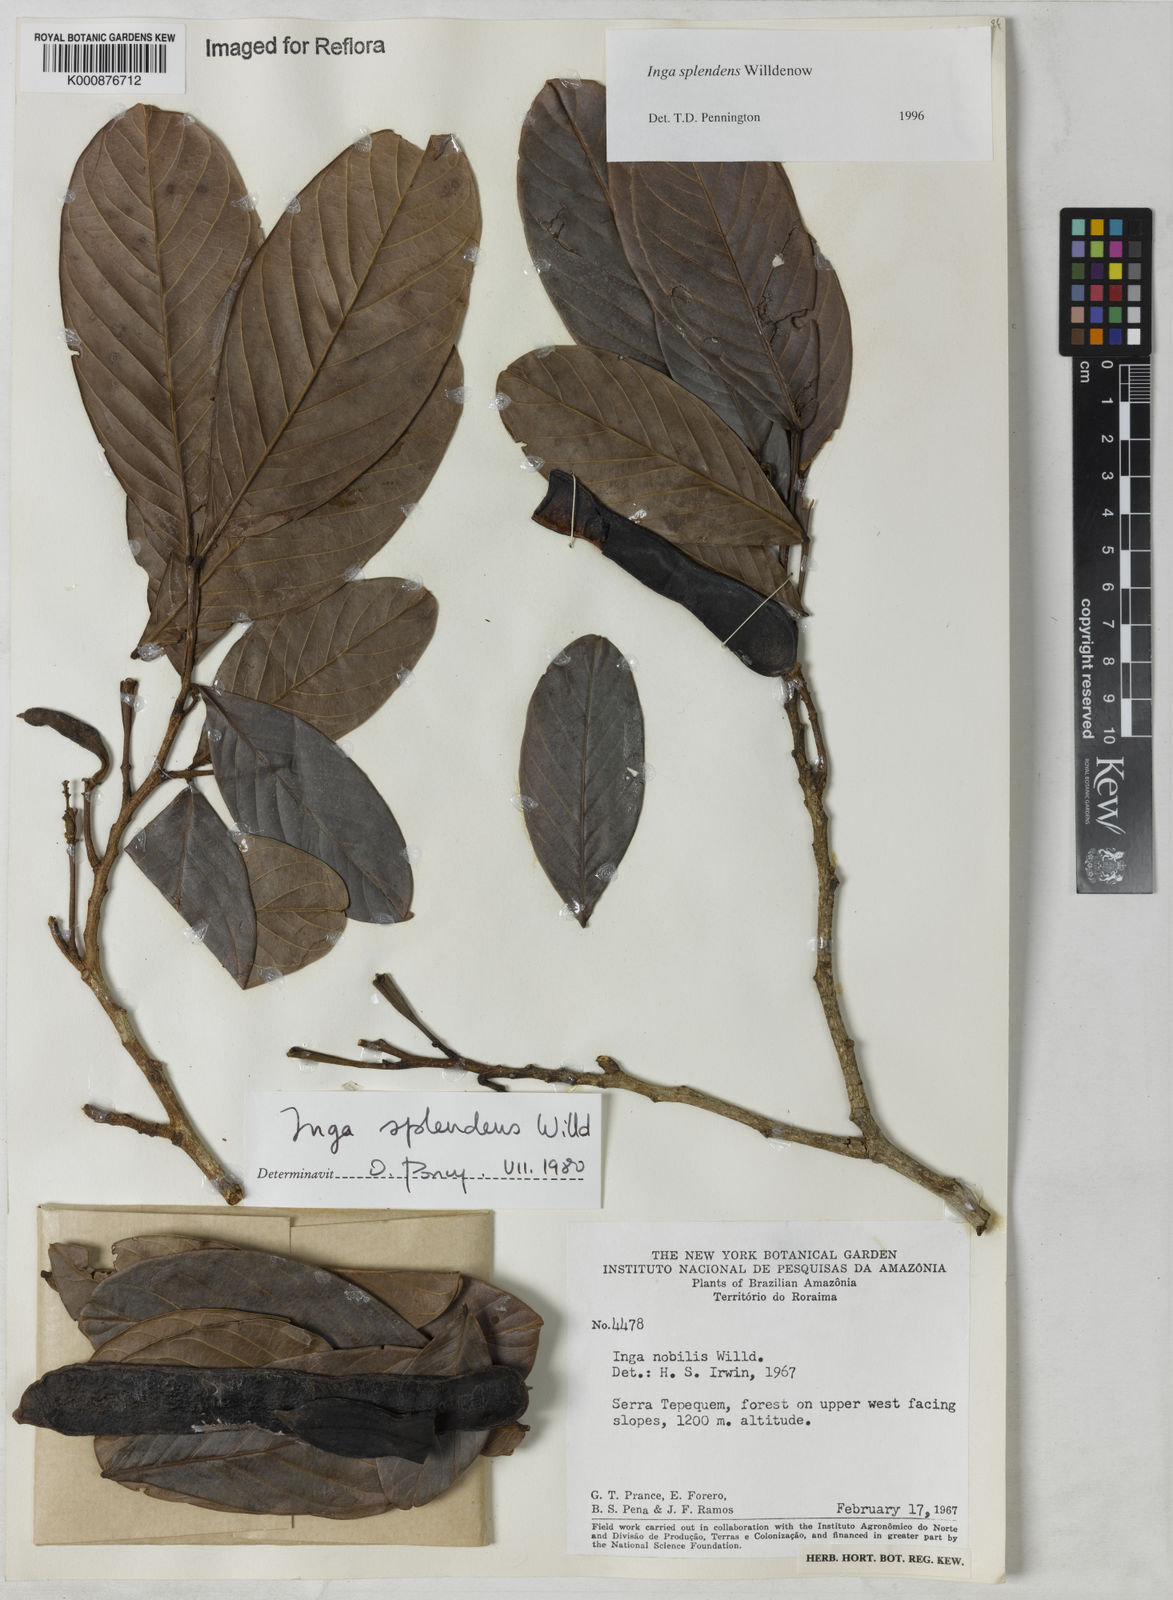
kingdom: Plantae
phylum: Tracheophyta
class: Magnoliopsida
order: Fabales
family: Fabaceae
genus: Inga
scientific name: Inga splendens
